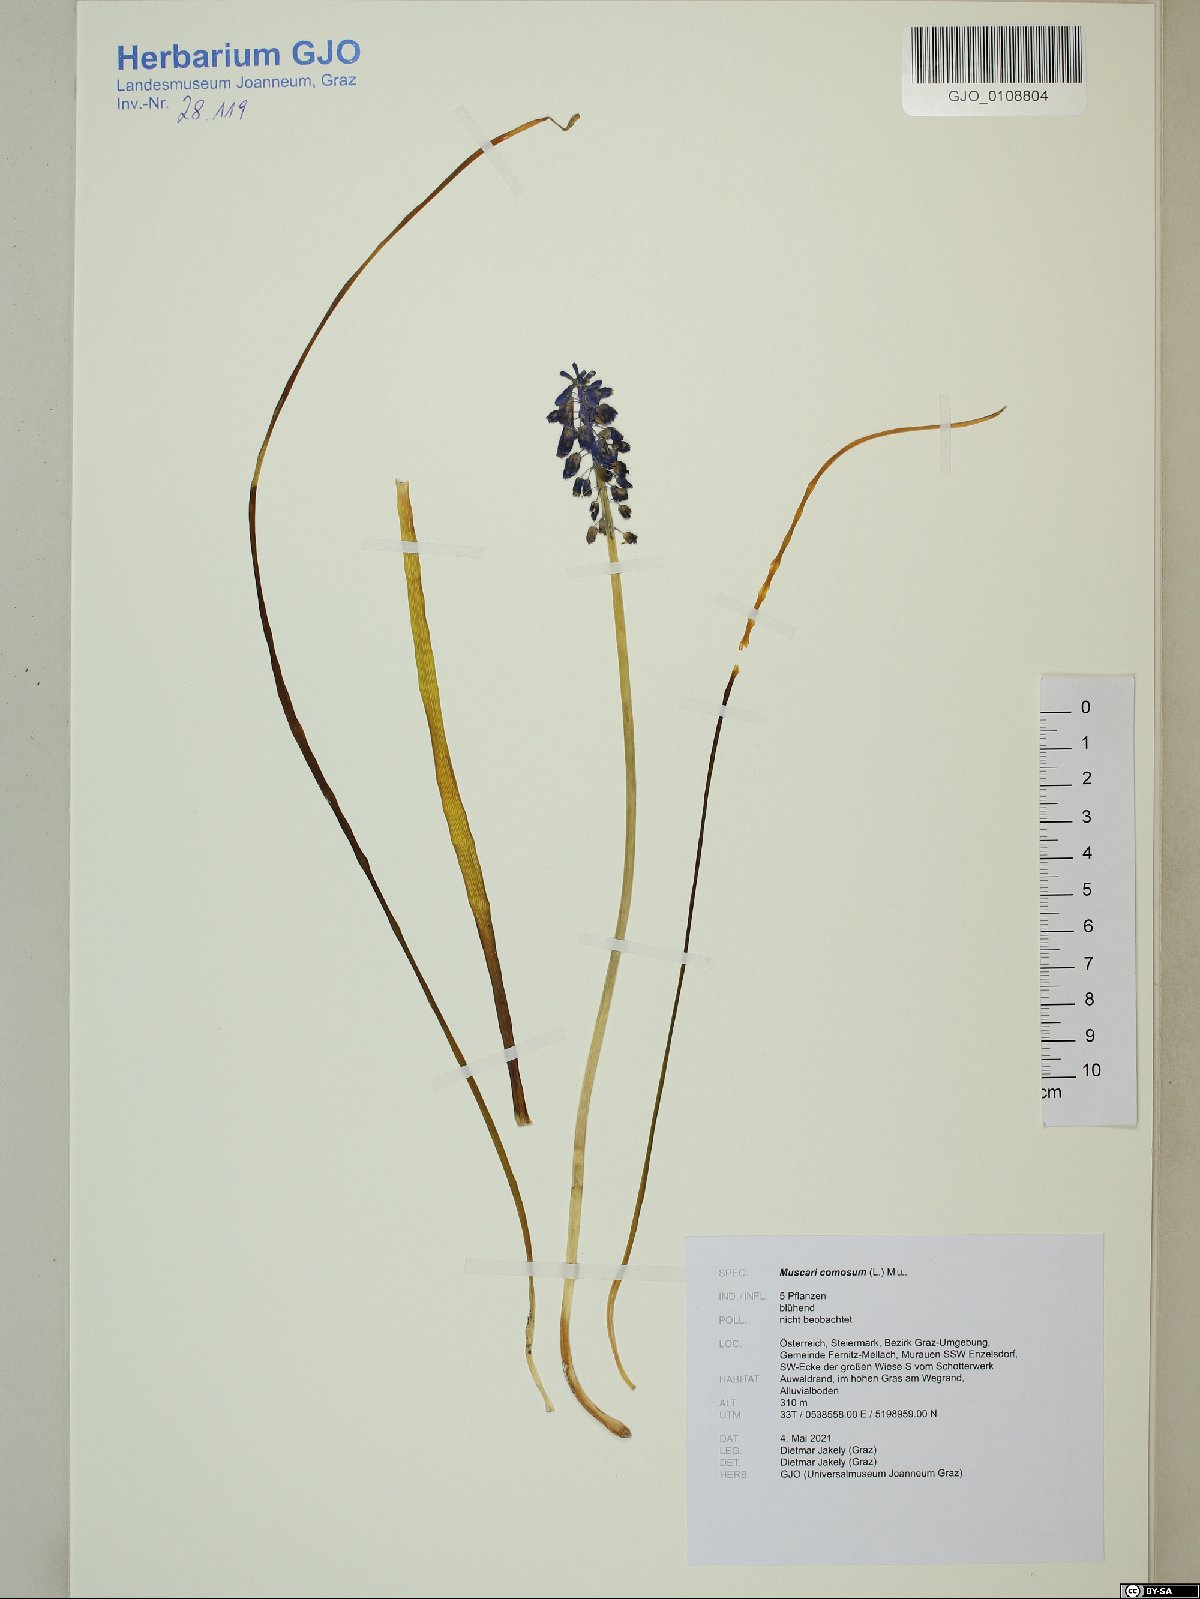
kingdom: Plantae
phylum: Tracheophyta
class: Liliopsida
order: Asparagales
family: Asparagaceae
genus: Muscari
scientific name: Muscari comosum
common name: Tassel hyacinth
